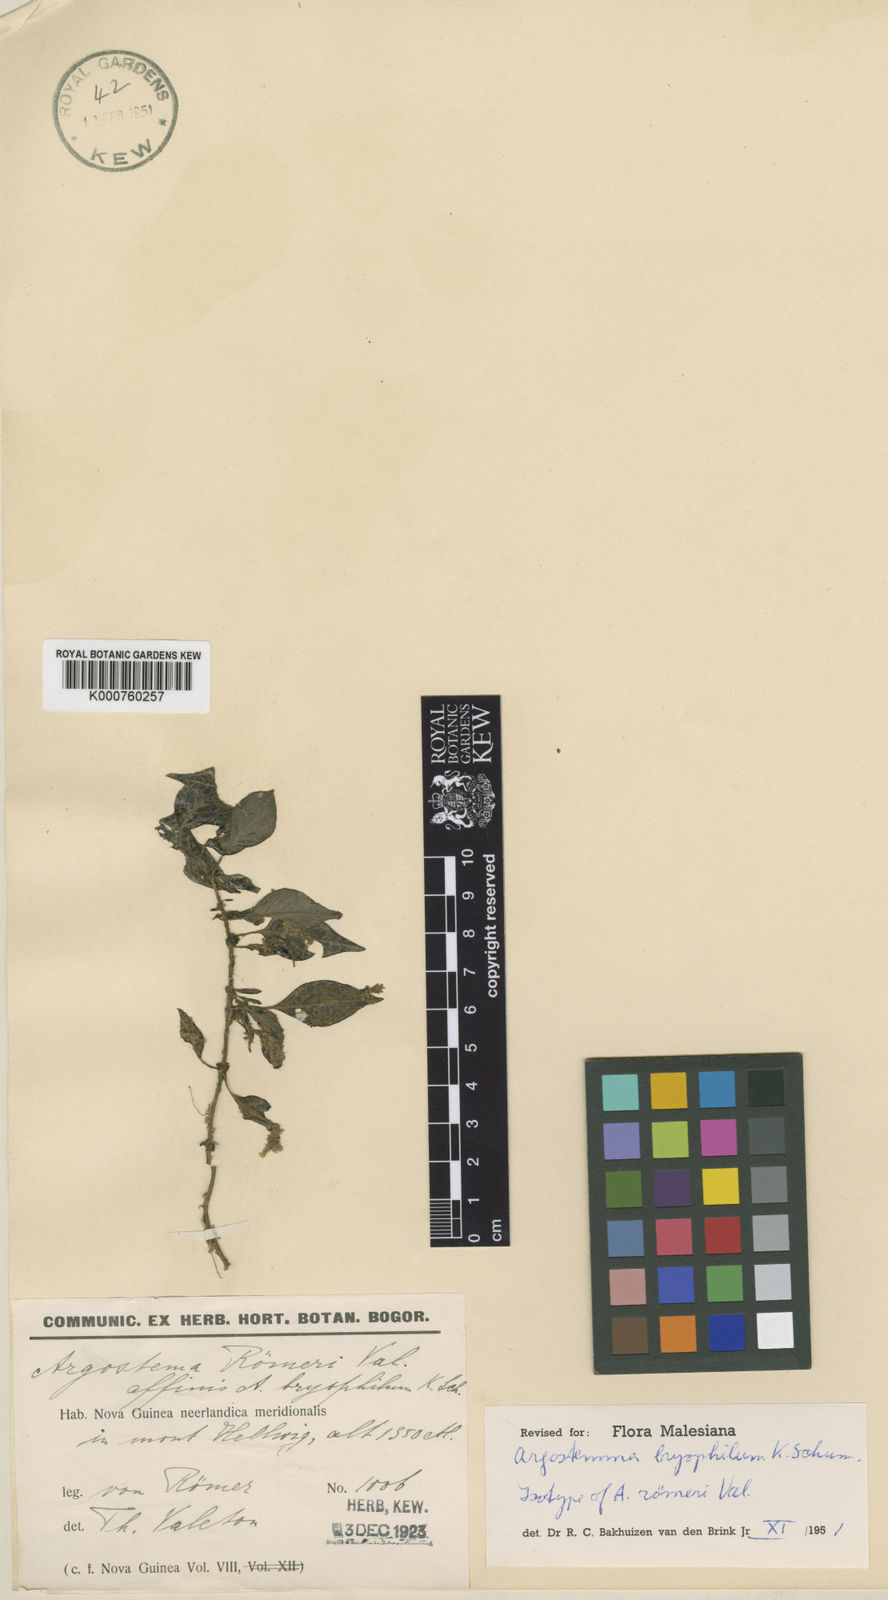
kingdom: Plantae
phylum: Tracheophyta
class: Magnoliopsida
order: Gentianales
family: Rubiaceae
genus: Argostemma
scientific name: Argostemma bryophilum
